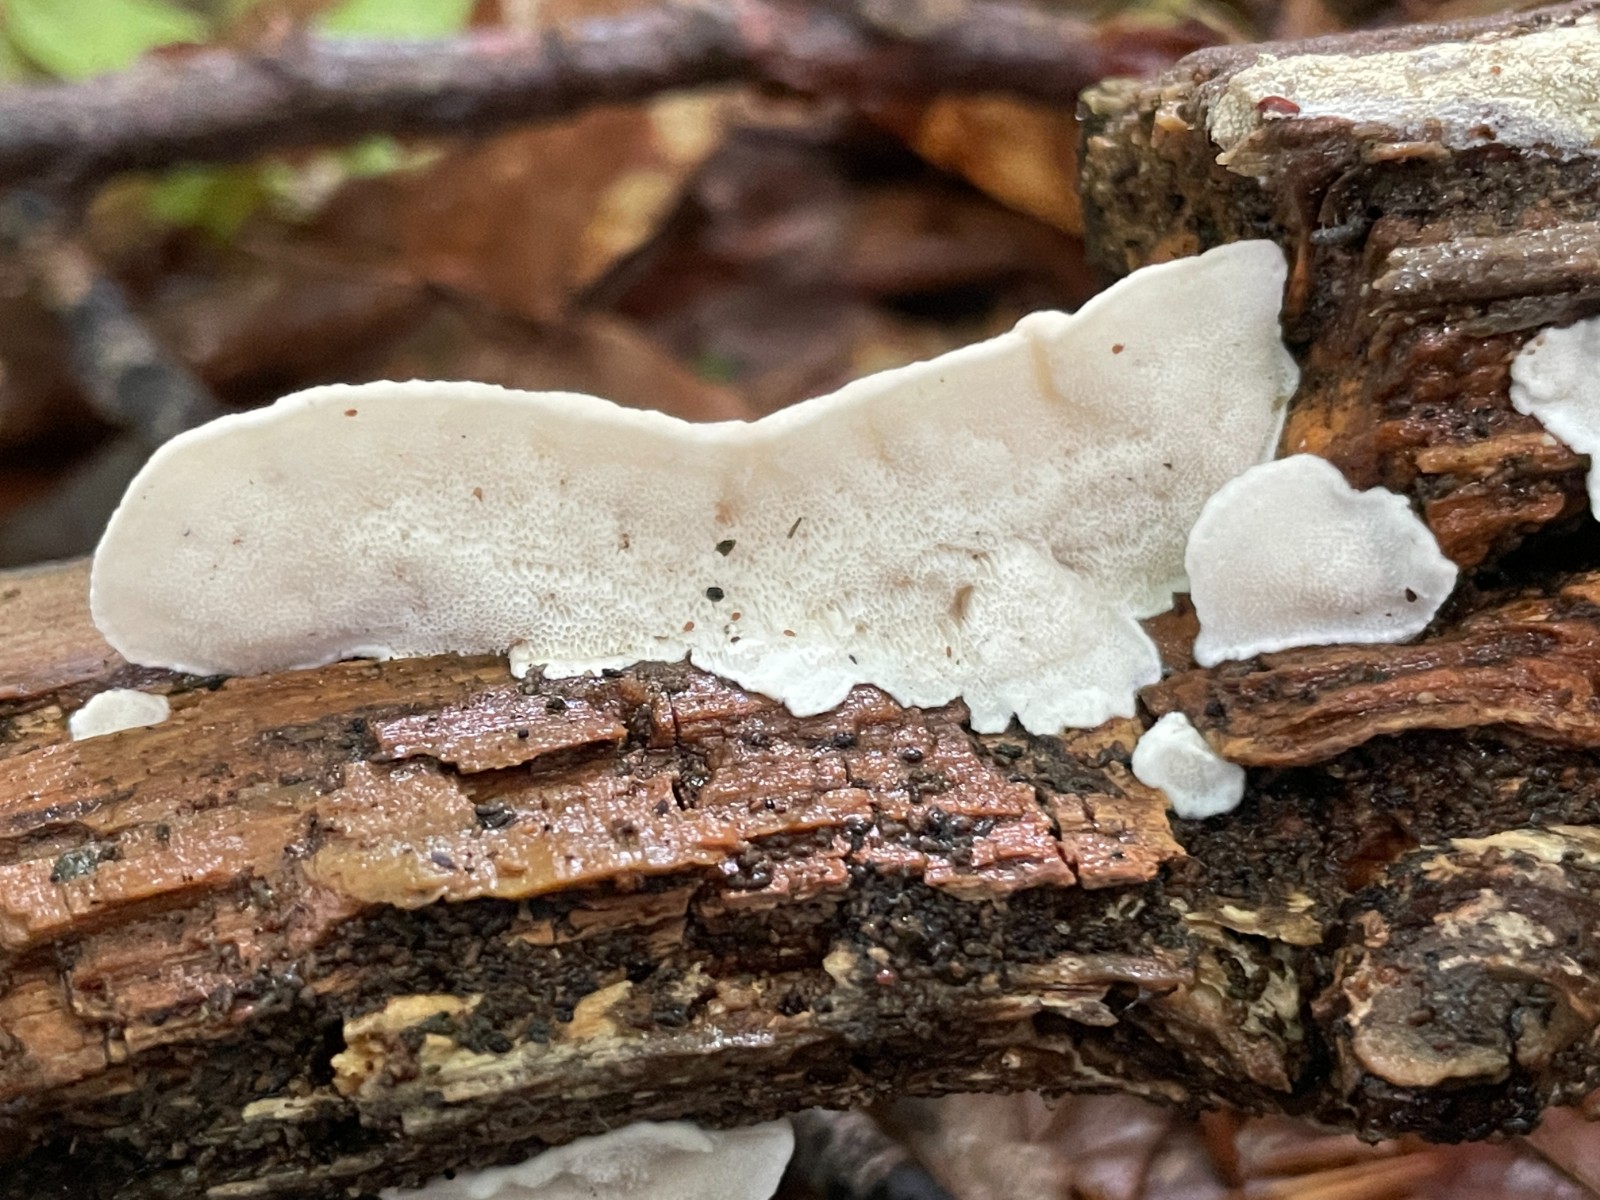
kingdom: Fungi
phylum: Basidiomycota
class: Agaricomycetes
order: Polyporales
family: Dacryobolaceae
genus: Postia
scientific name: Postia
